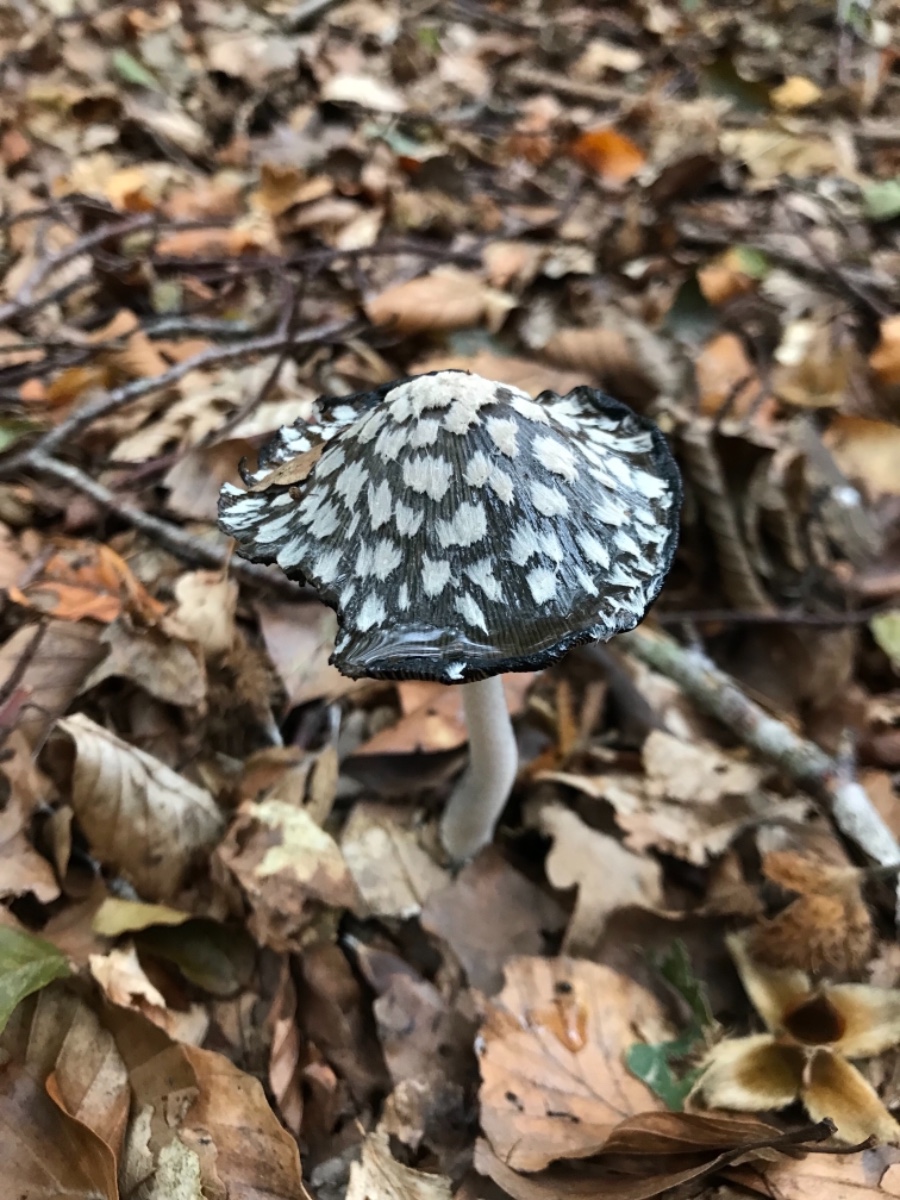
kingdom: Fungi
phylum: Basidiomycota
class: Agaricomycetes
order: Agaricales
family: Psathyrellaceae
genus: Coprinopsis
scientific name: Coprinopsis picacea
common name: skade-blækhat
